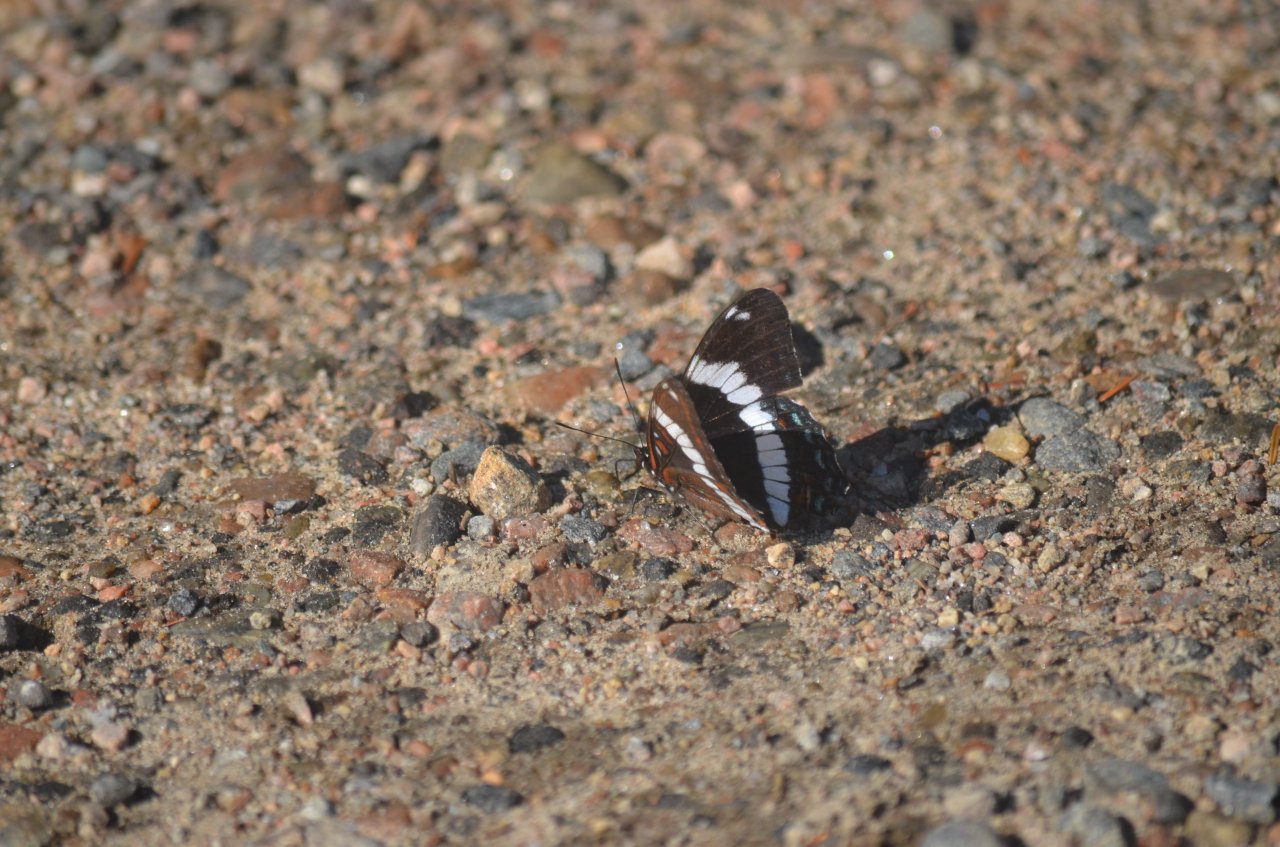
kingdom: Animalia
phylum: Arthropoda
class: Insecta
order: Lepidoptera
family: Nymphalidae
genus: Limenitis
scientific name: Limenitis arthemis
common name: Red-spotted Admiral
